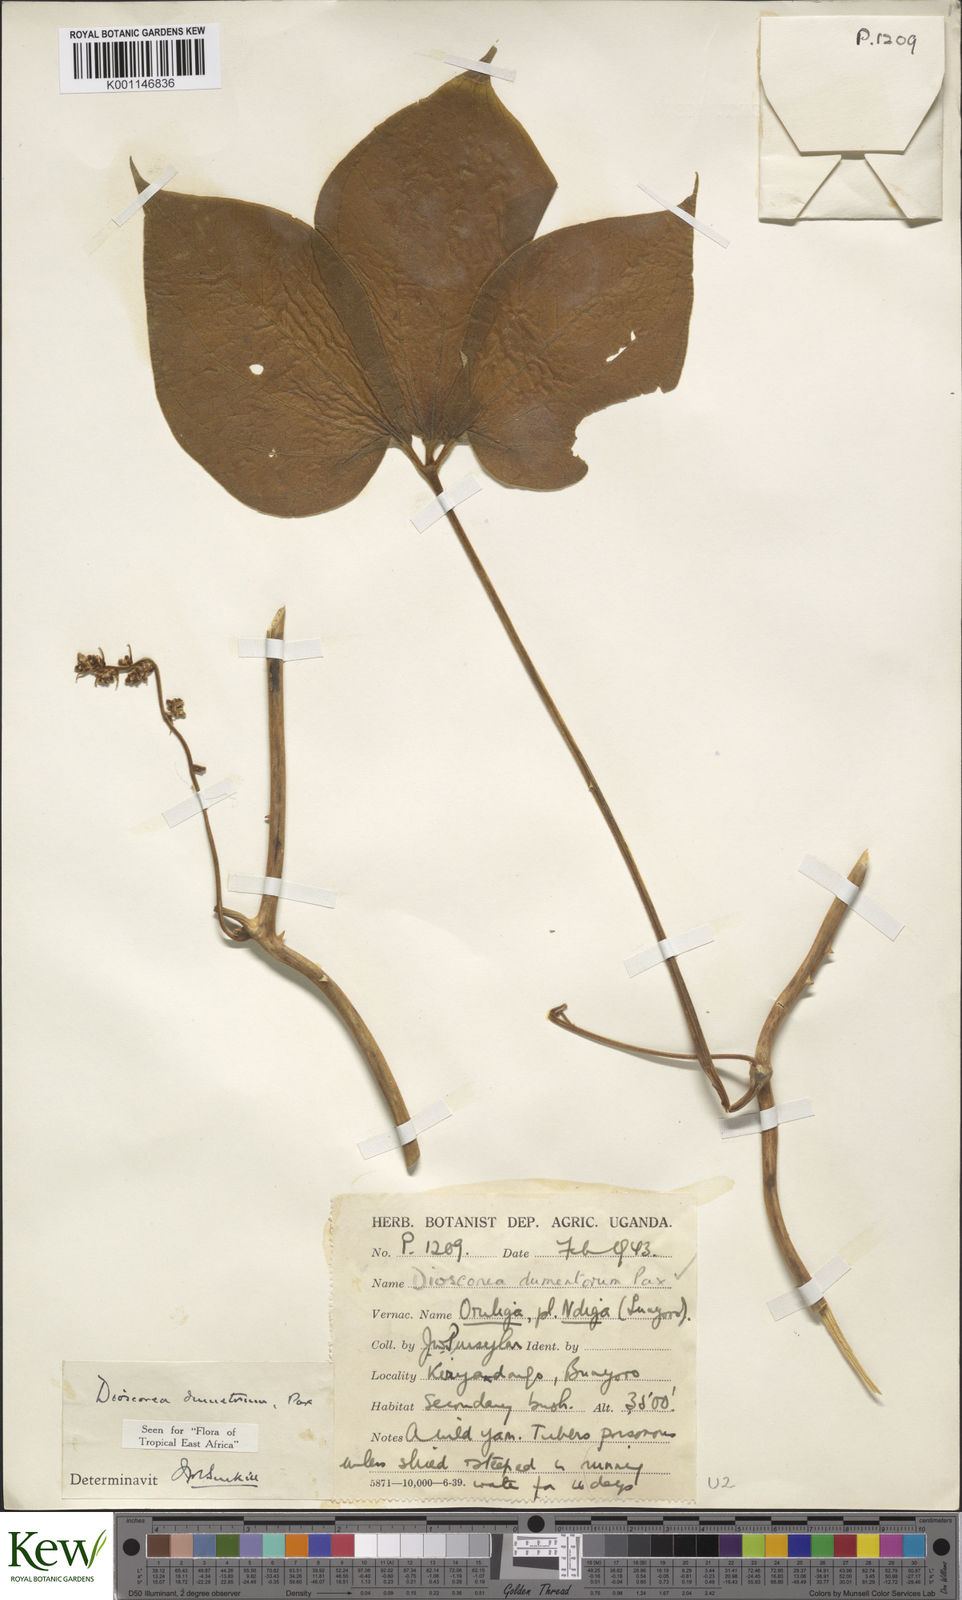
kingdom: Plantae
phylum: Tracheophyta
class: Liliopsida
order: Dioscoreales
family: Dioscoreaceae
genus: Dioscorea
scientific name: Dioscorea dumetorum
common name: African bitter yam
